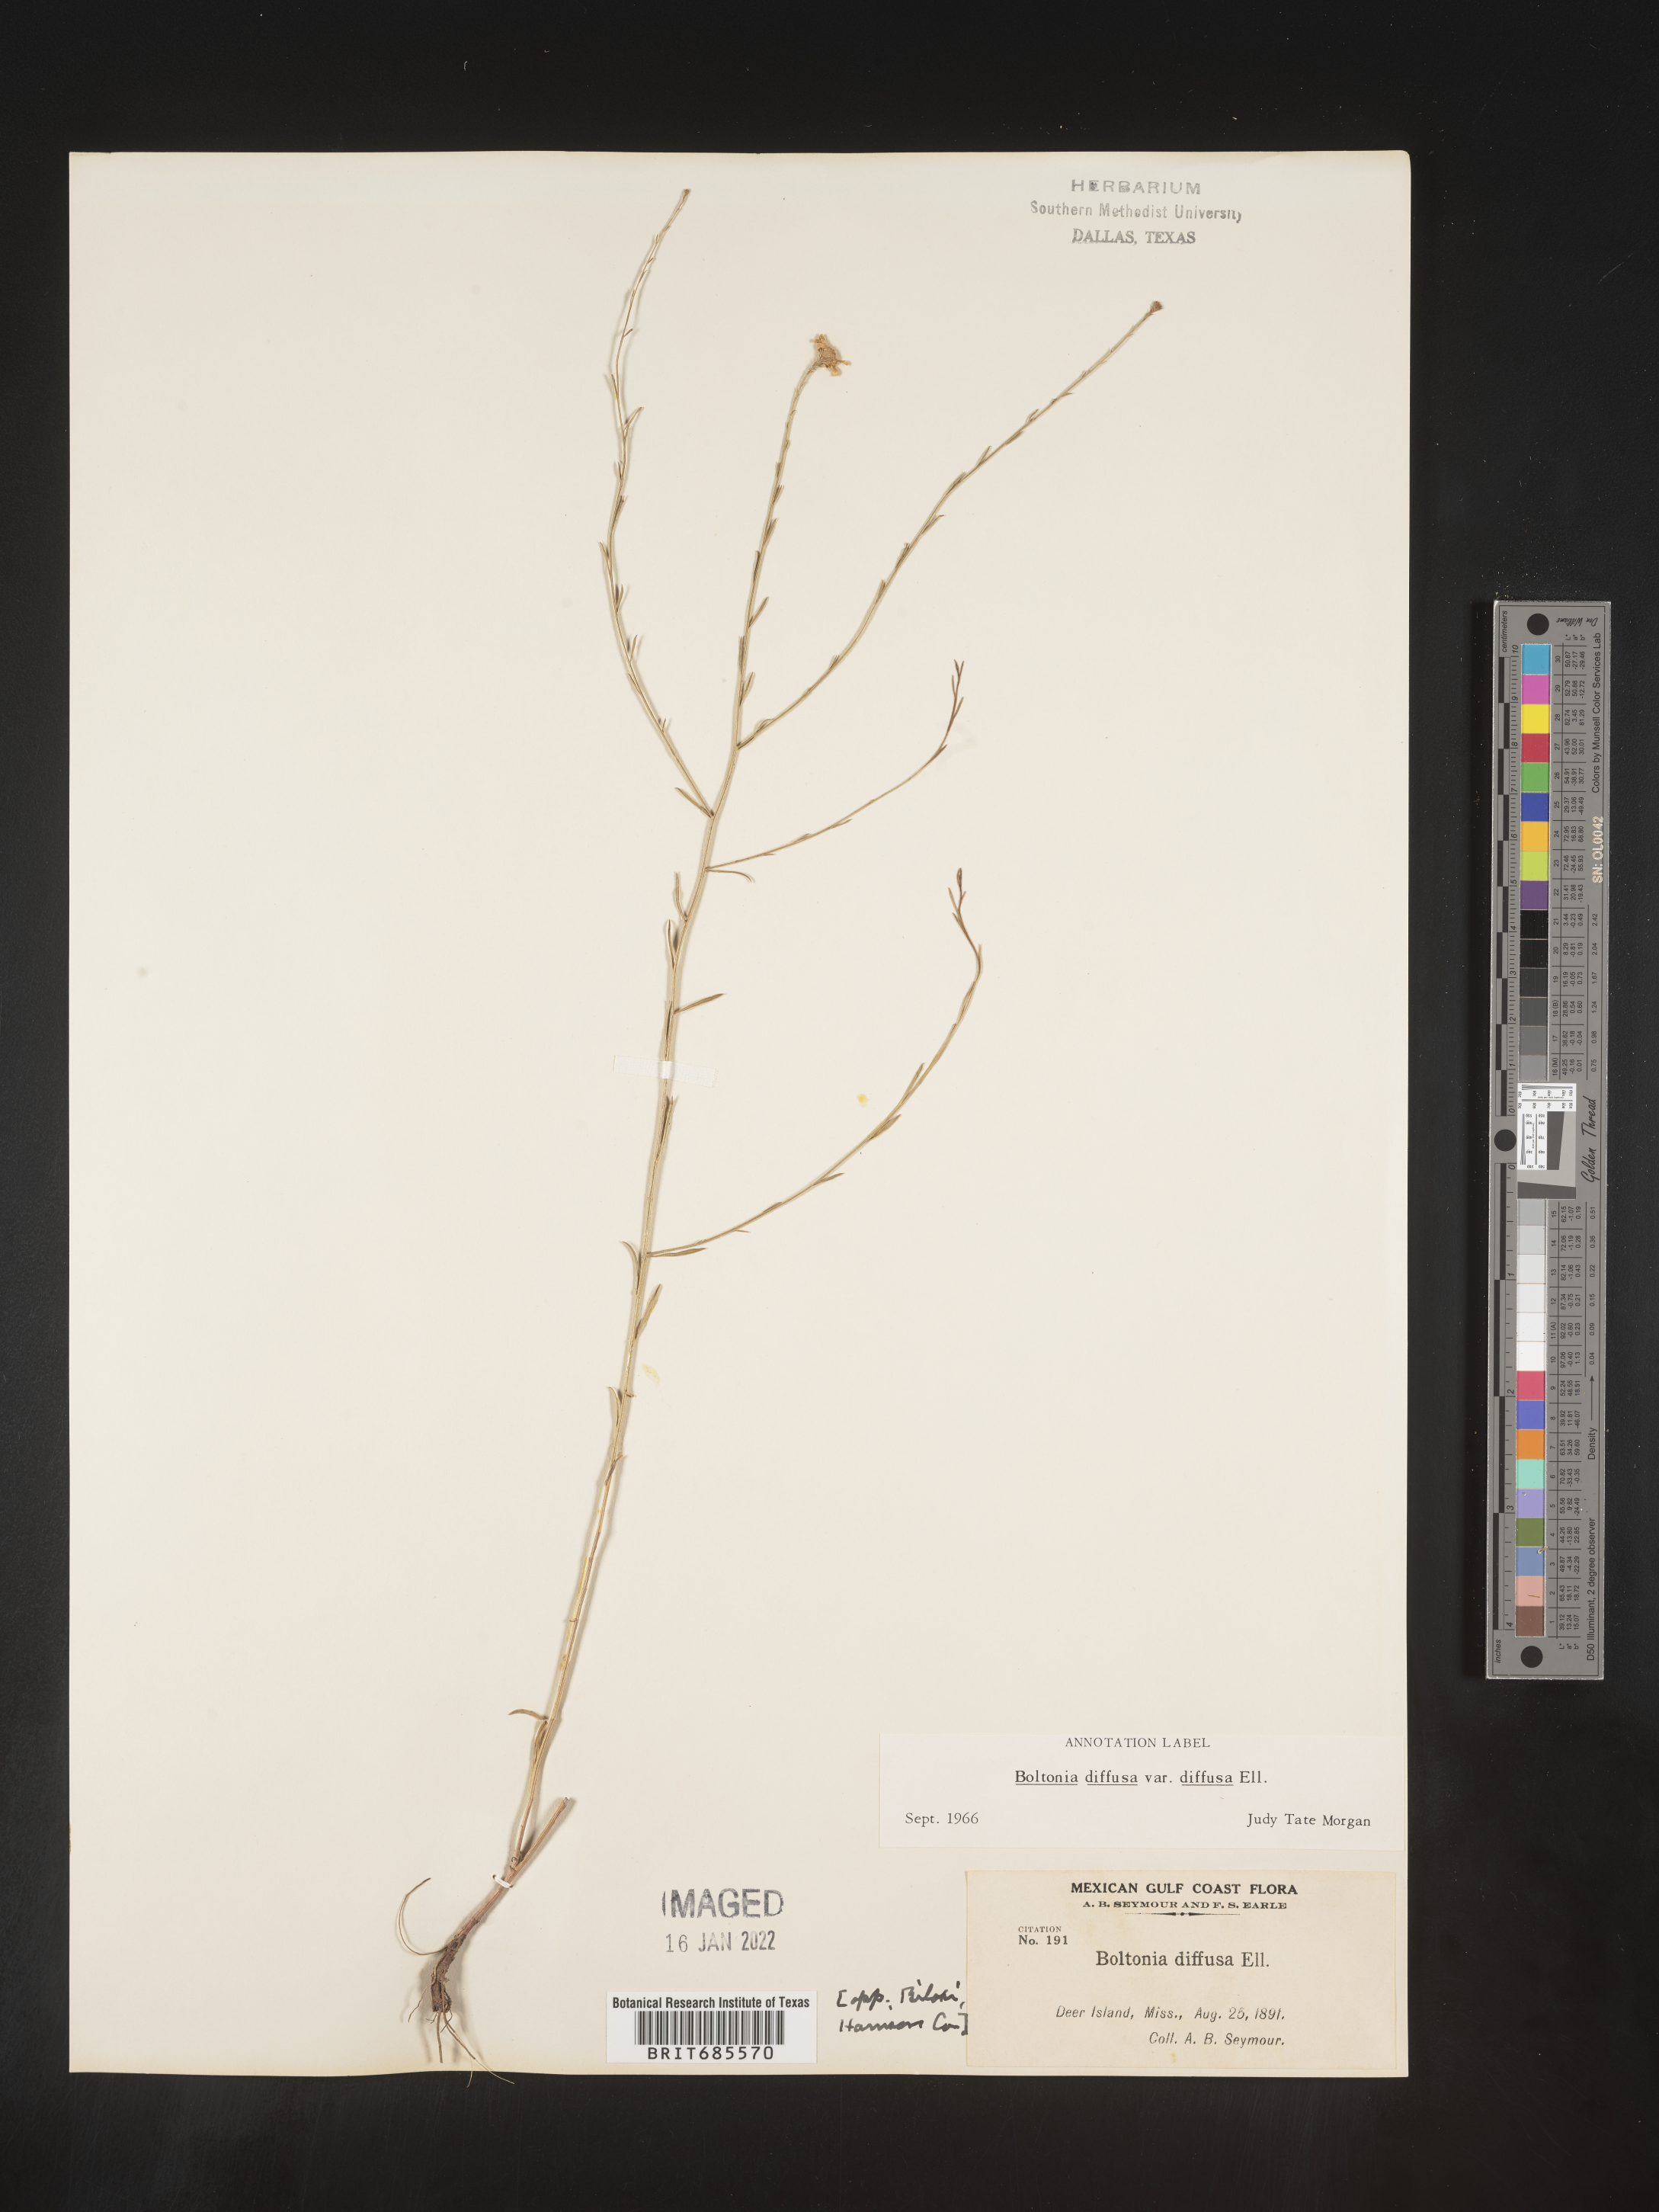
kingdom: Plantae
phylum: Tracheophyta
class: Magnoliopsida
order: Asterales
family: Asteraceae
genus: Boltonia
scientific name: Boltonia diffusa
